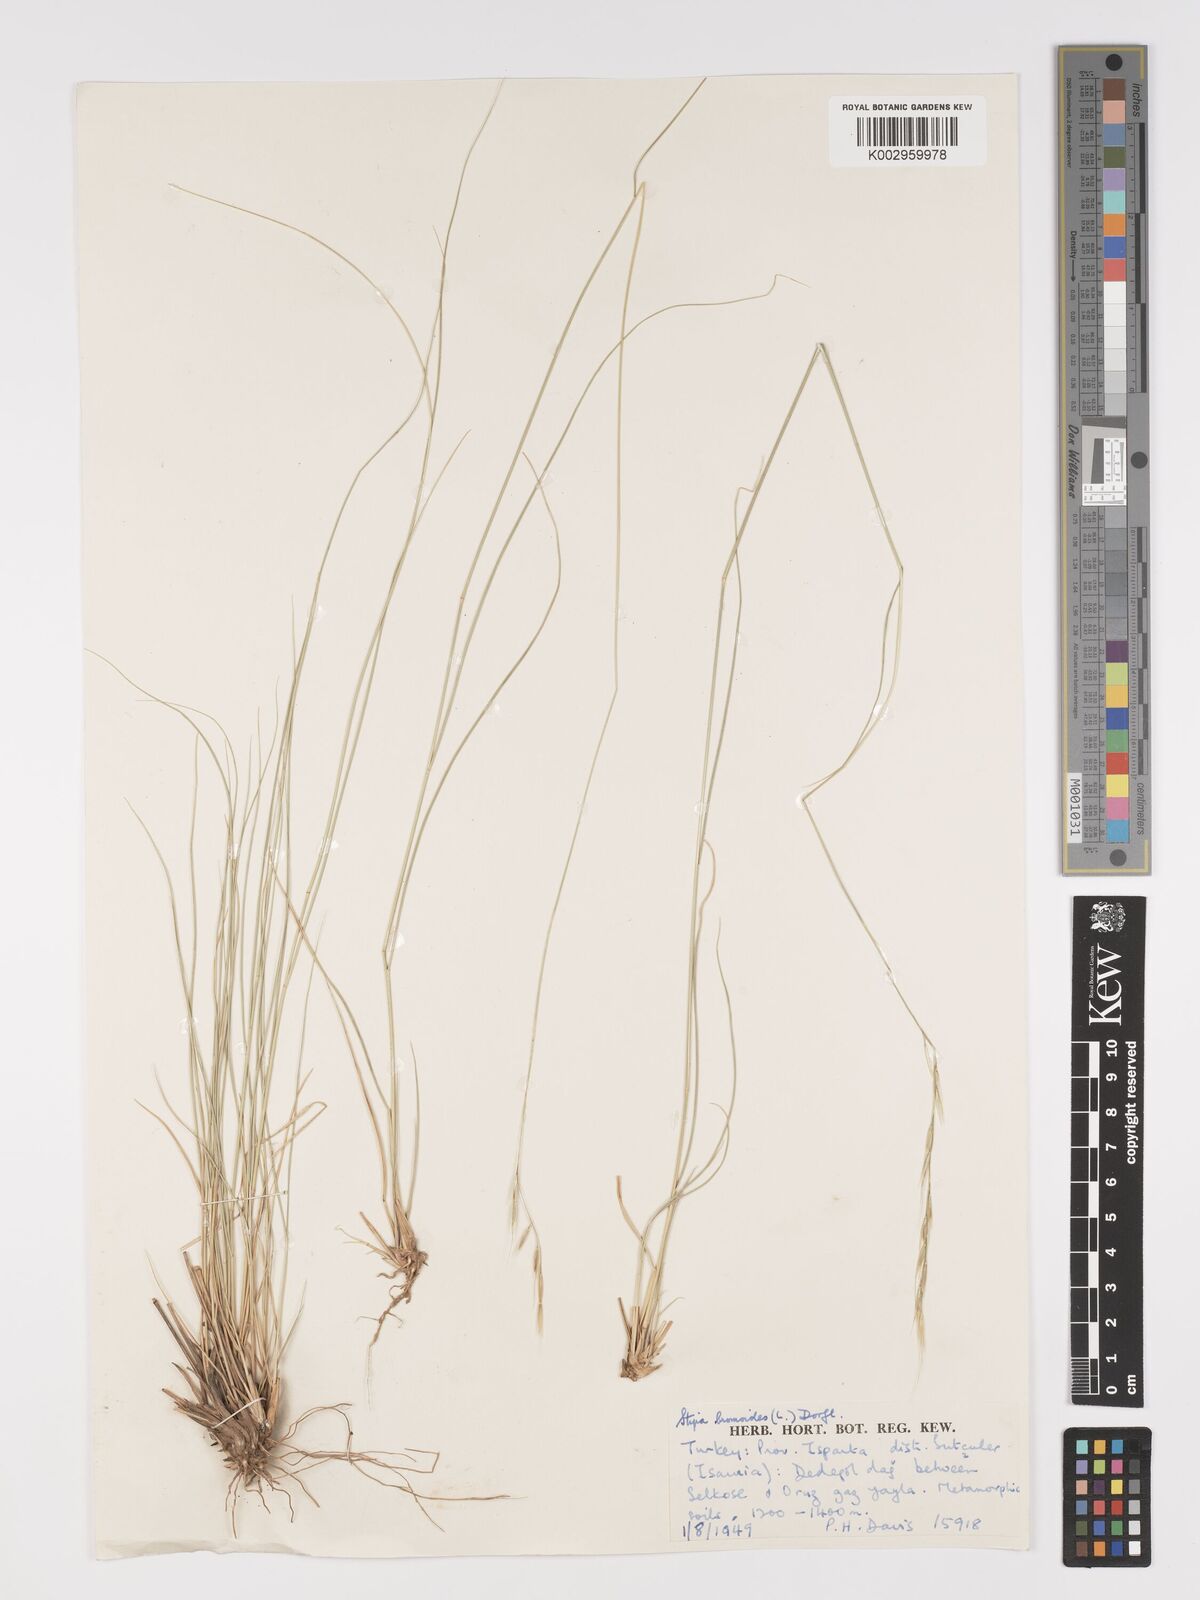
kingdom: Plantae
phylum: Tracheophyta
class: Liliopsida
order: Poales
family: Poaceae
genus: Achnatherum
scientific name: Achnatherum bromoides
